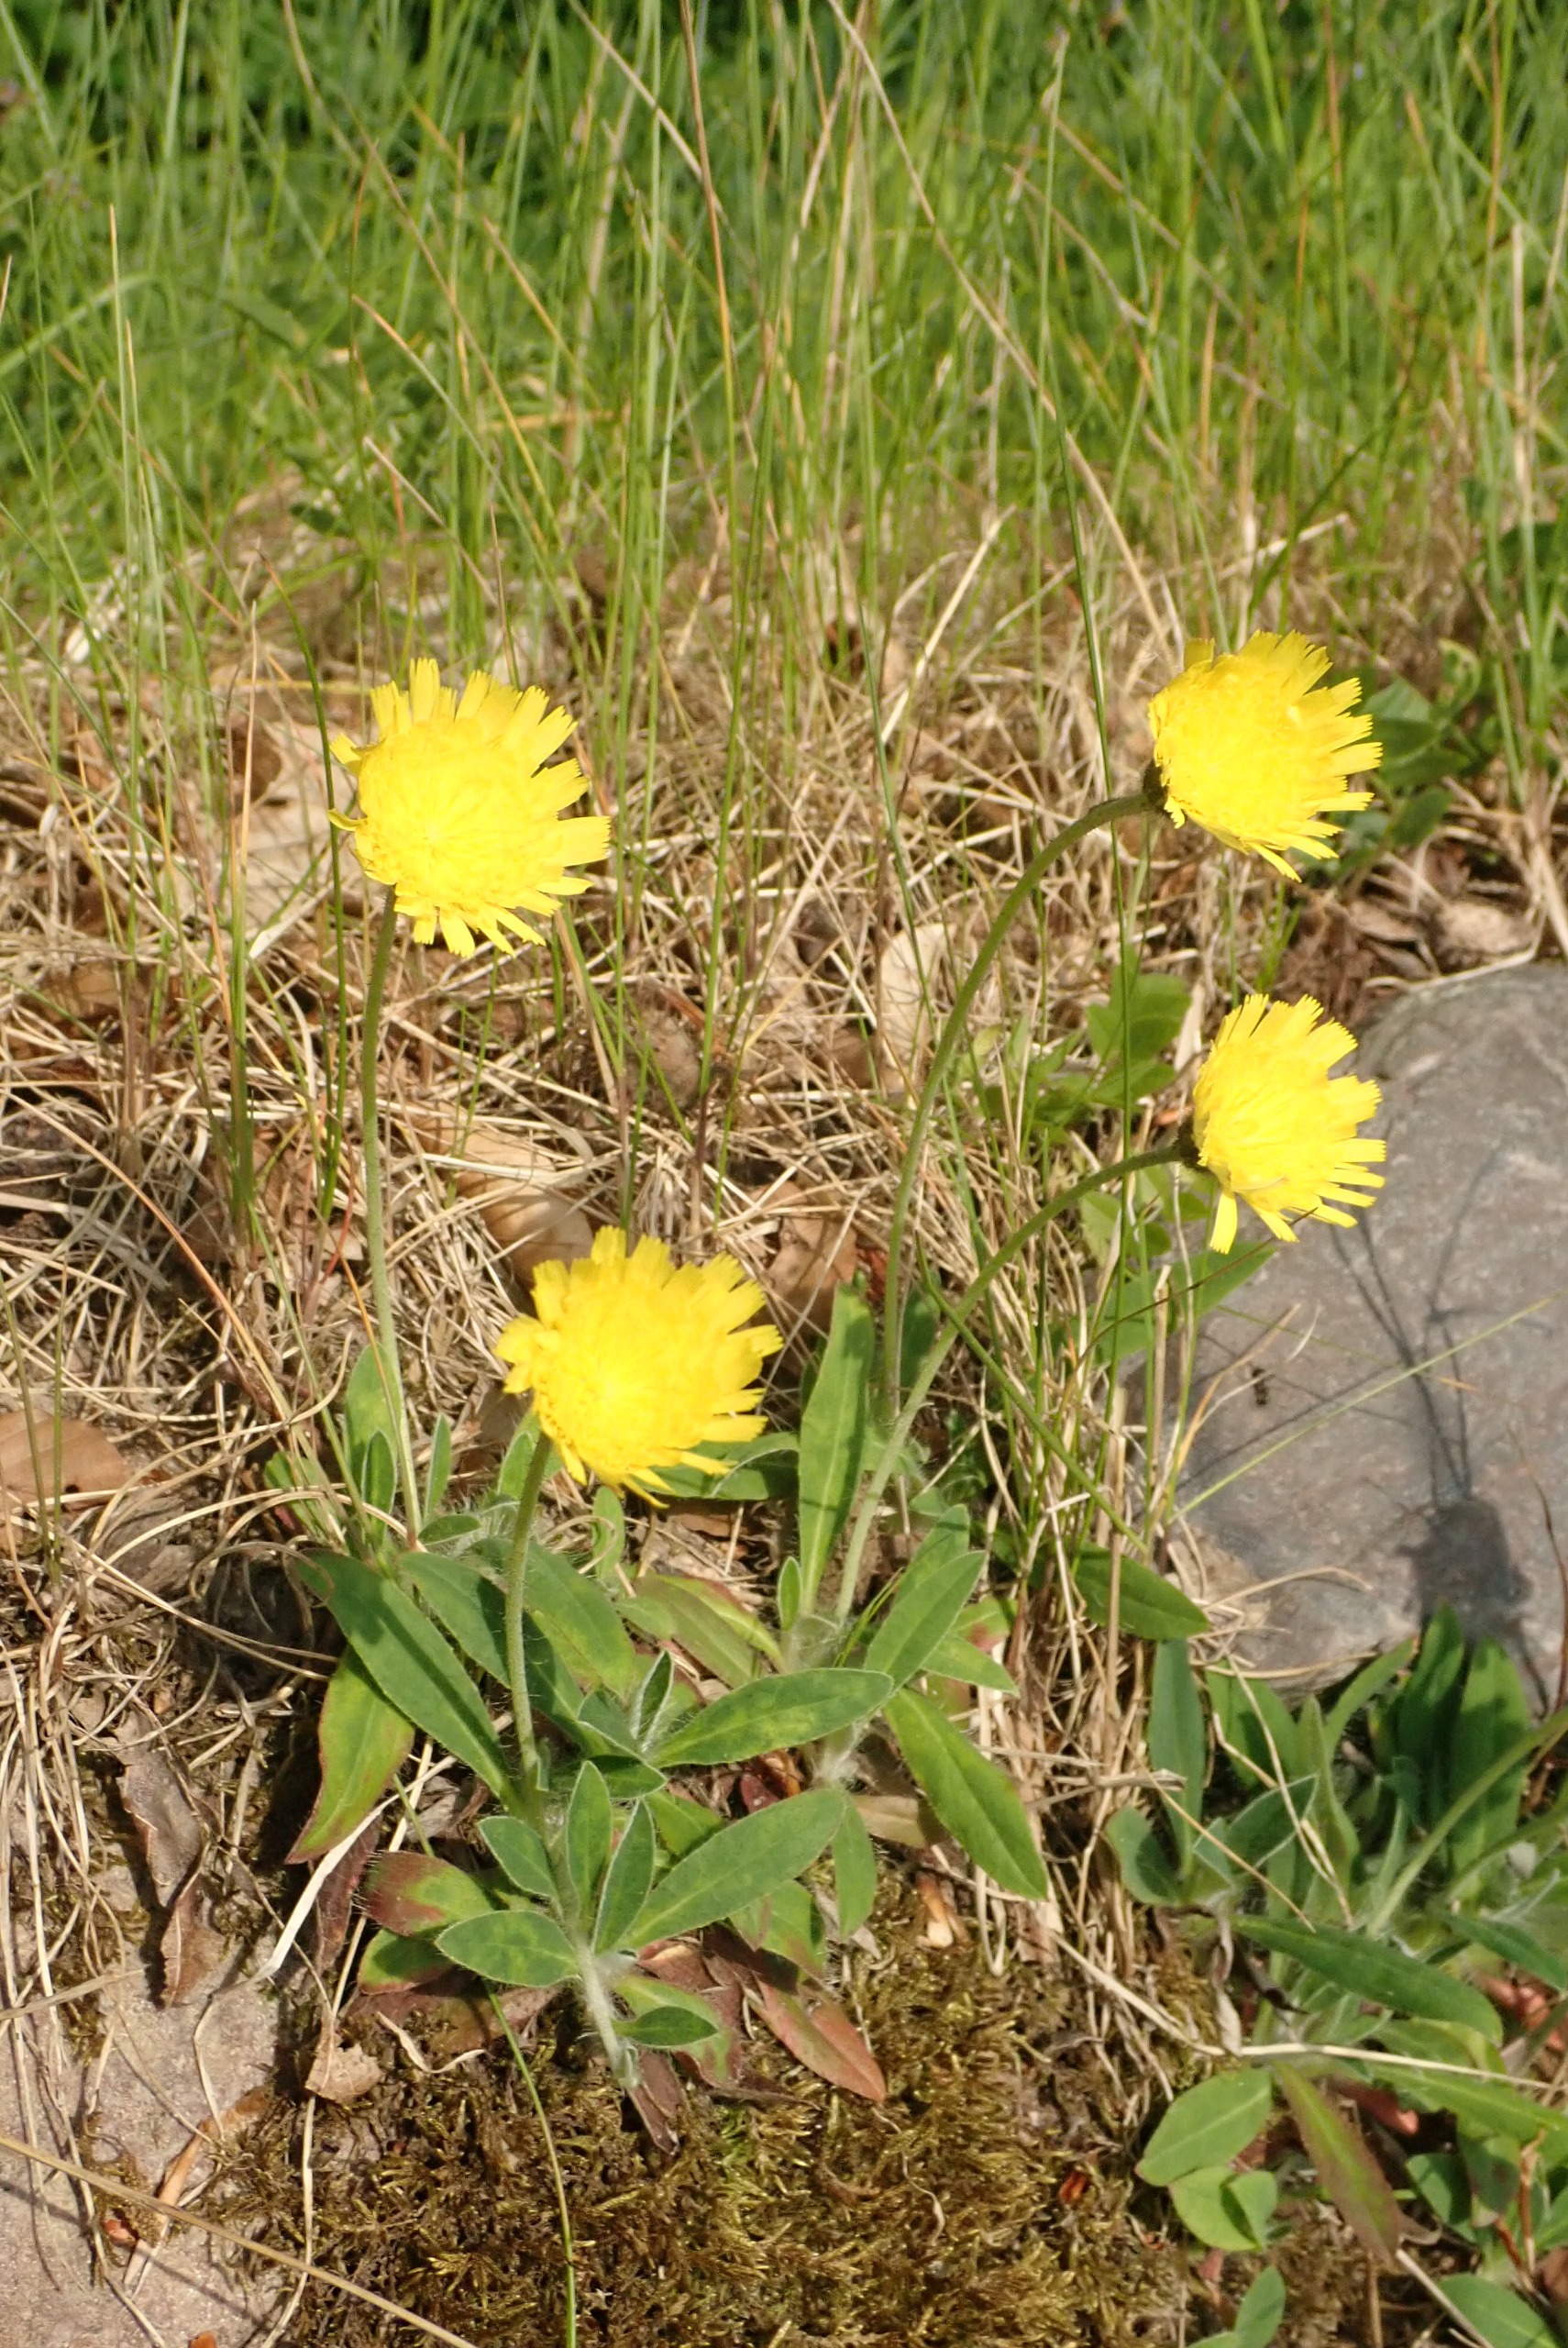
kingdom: Plantae
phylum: Tracheophyta
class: Magnoliopsida
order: Asterales
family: Asteraceae
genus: Pilosella
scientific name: Pilosella officinarum
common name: Håret høgeurt
